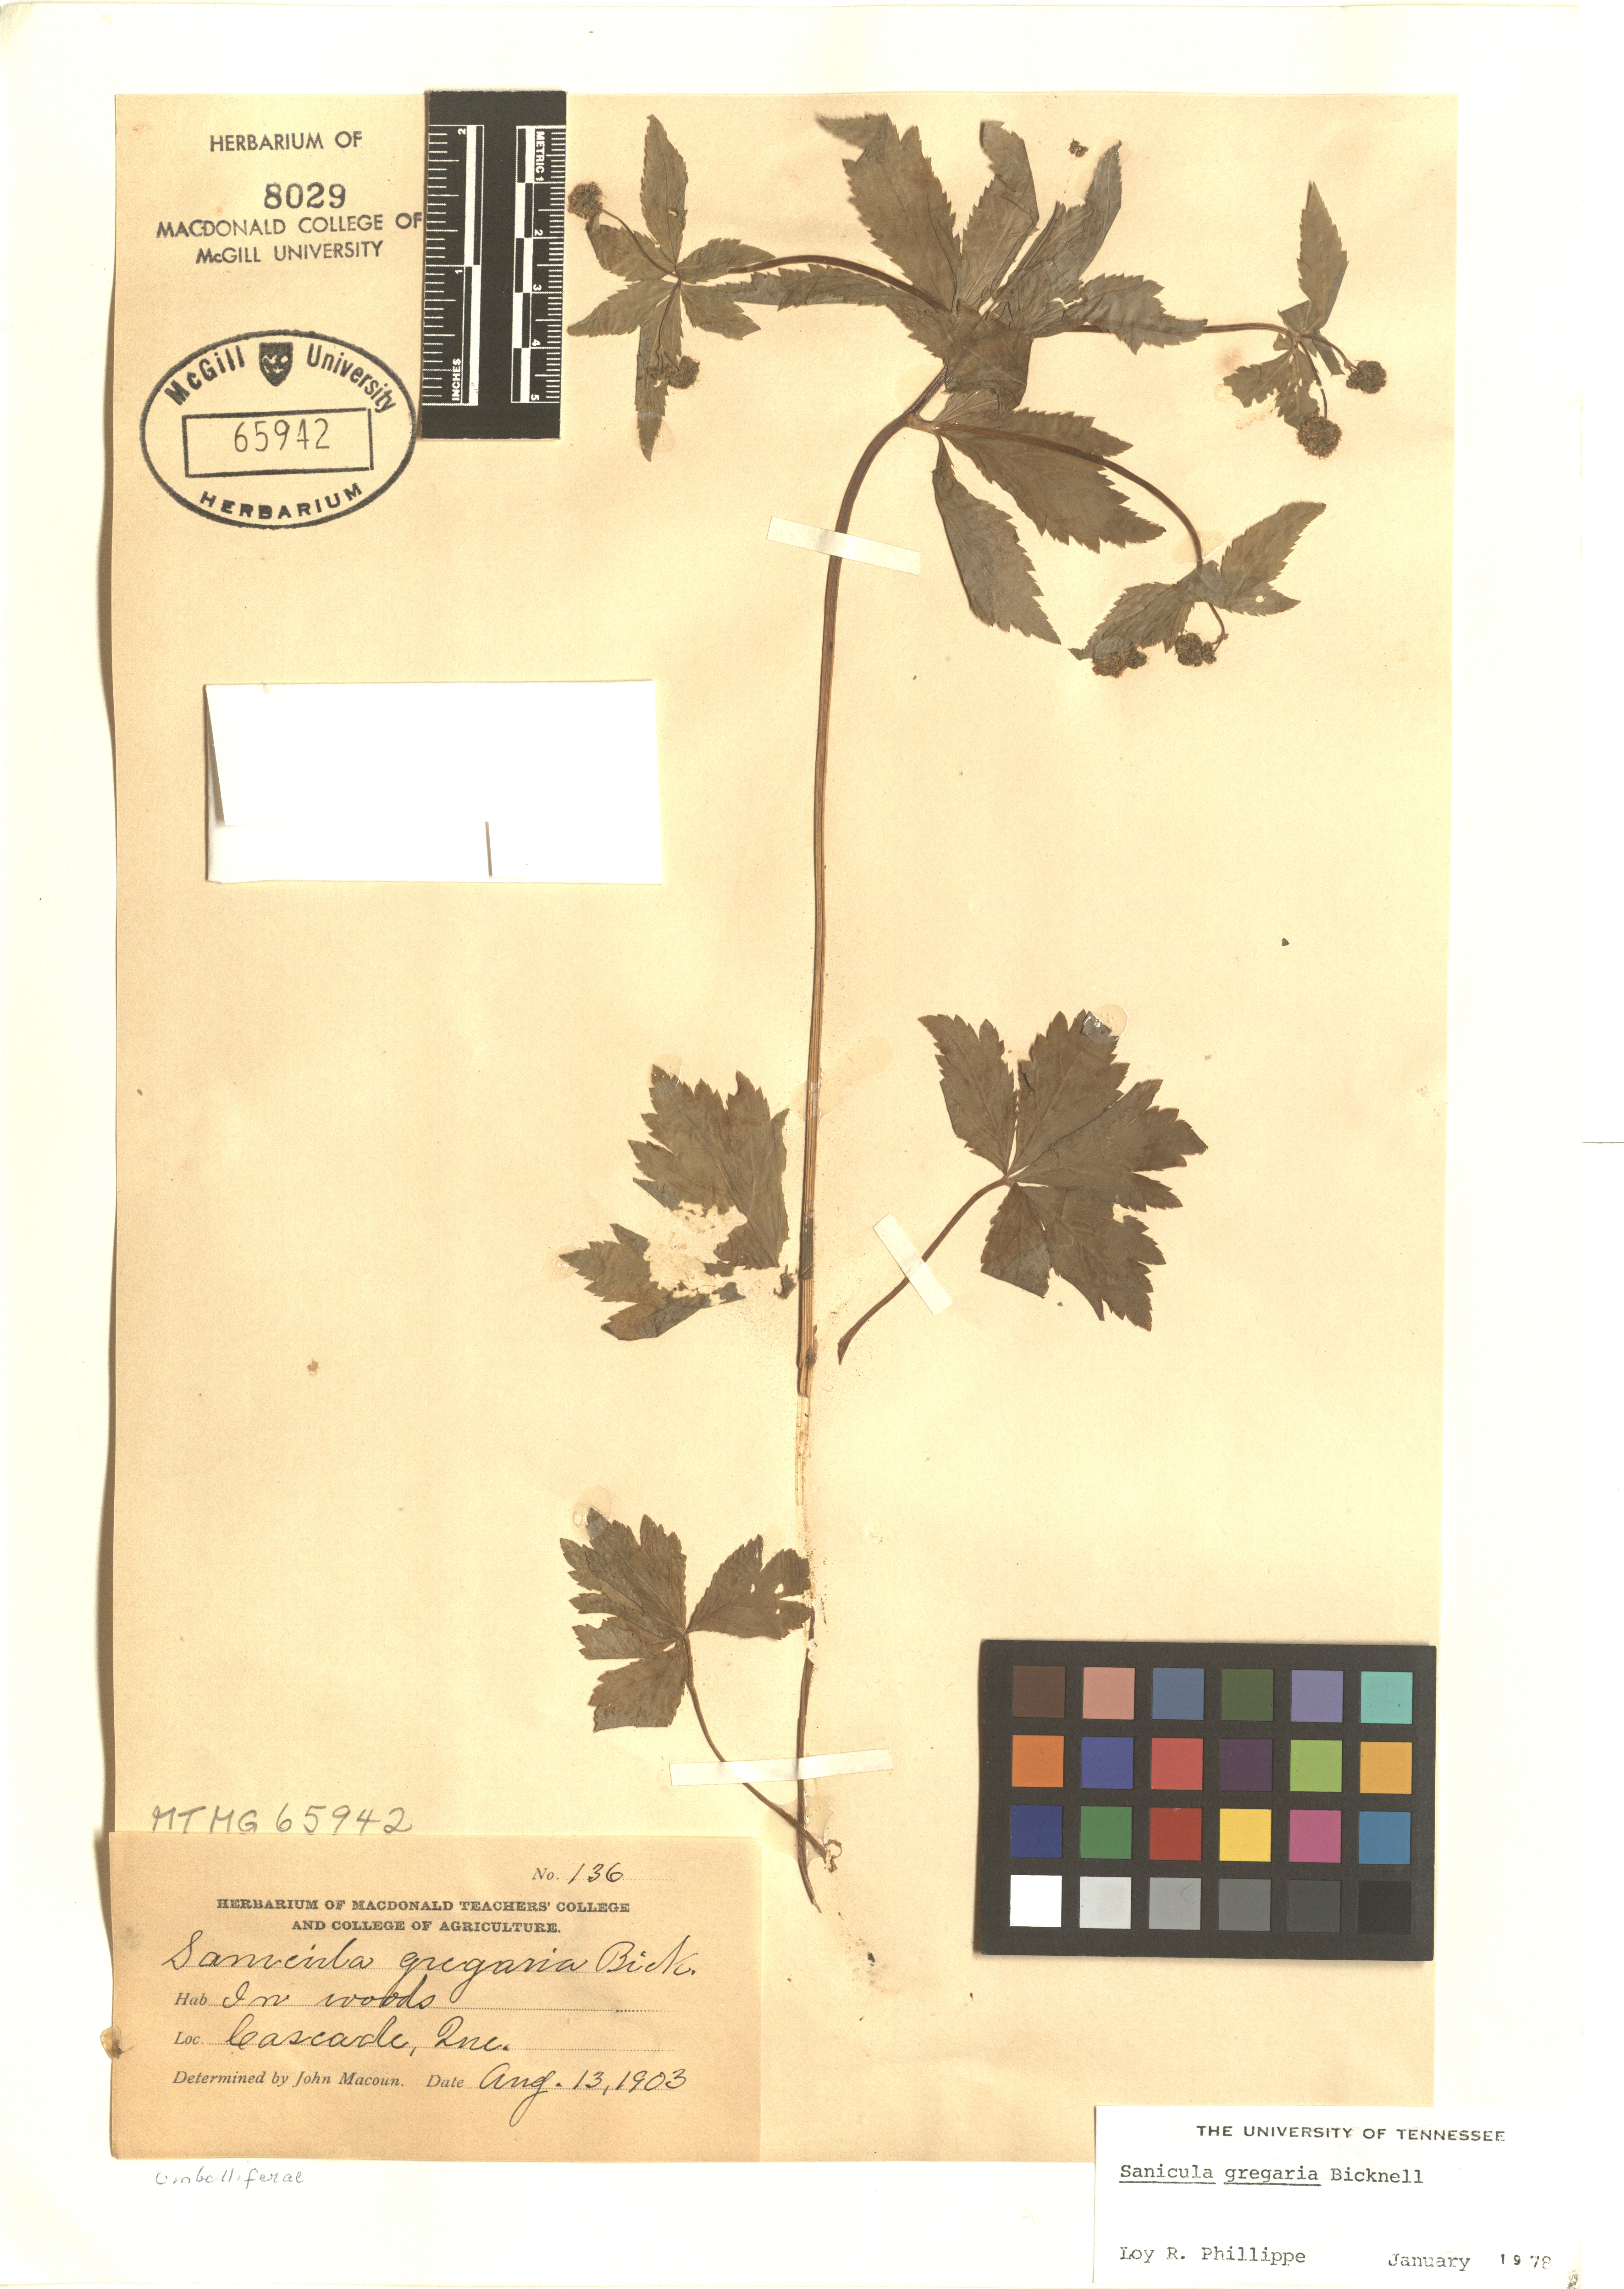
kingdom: Plantae
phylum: Tracheophyta
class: Magnoliopsida
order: Apiales
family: Apiaceae
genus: Sanicula
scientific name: Sanicula odorata
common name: Cluster sanicle
